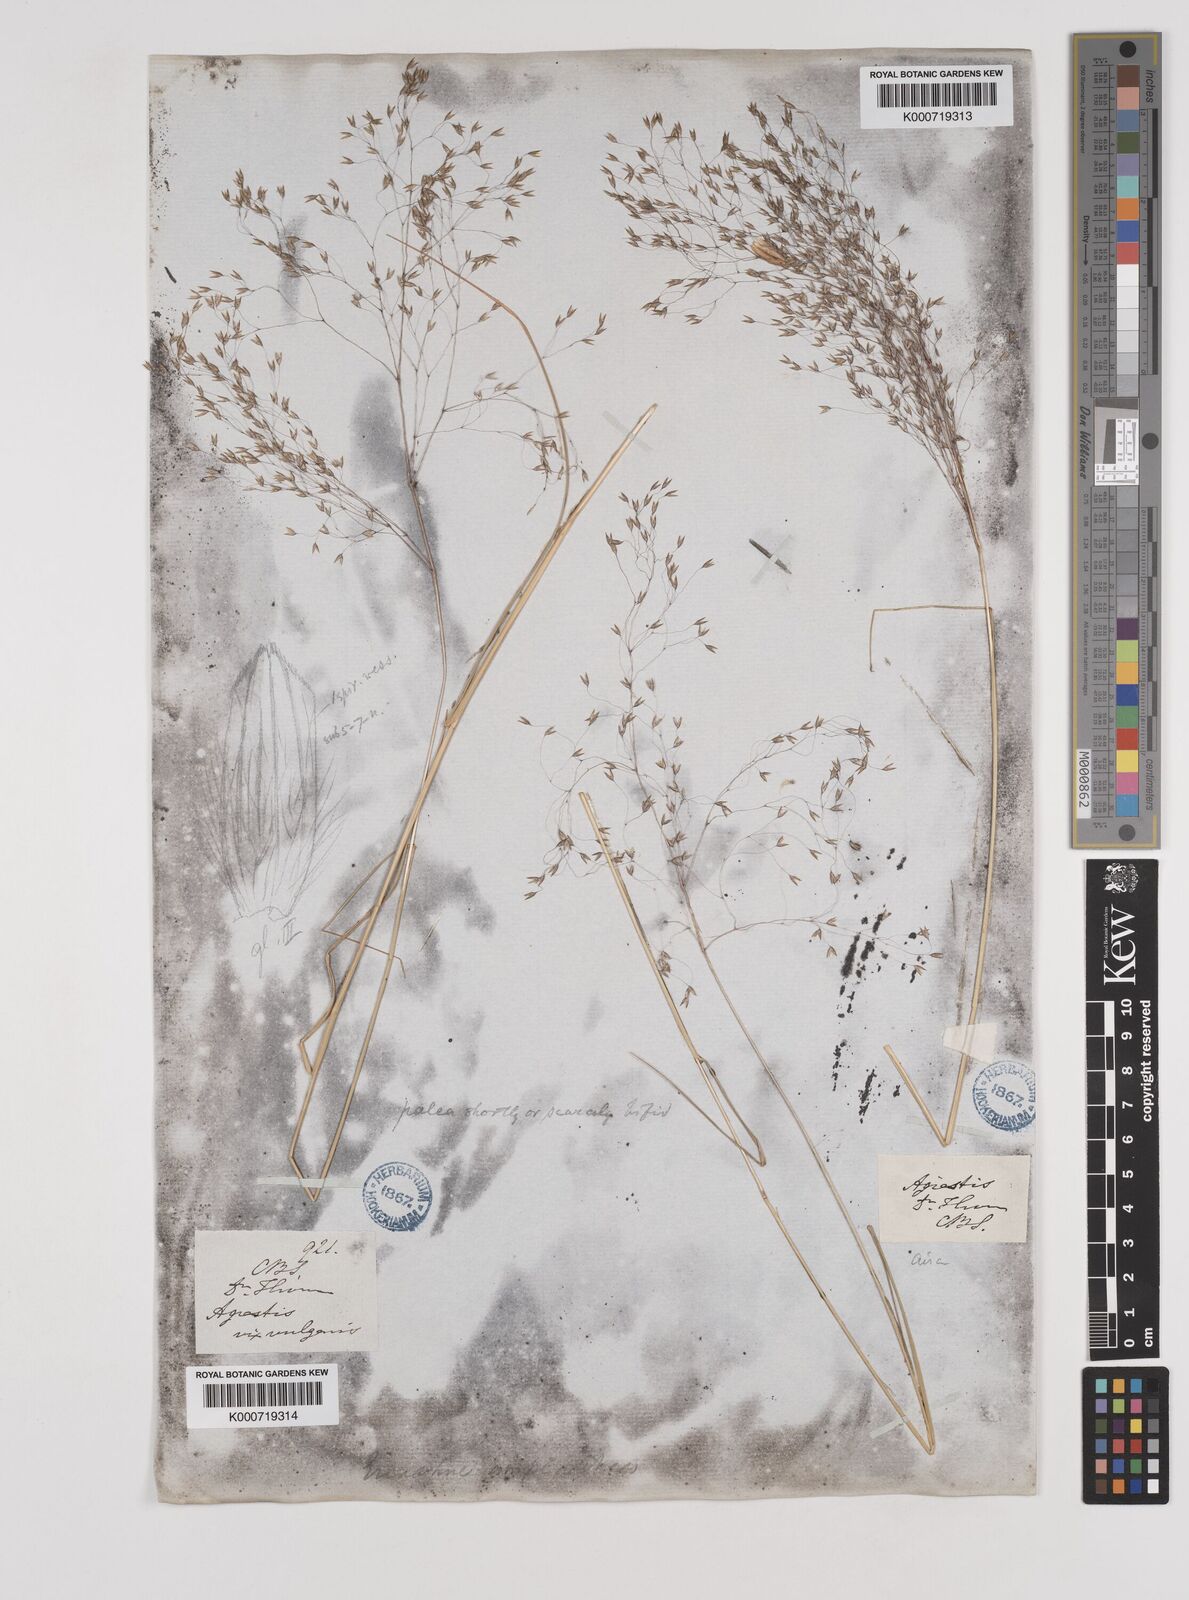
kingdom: Plantae
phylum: Tracheophyta
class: Liliopsida
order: Poales
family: Poaceae
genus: Pentameris
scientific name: Pentameris ampla
